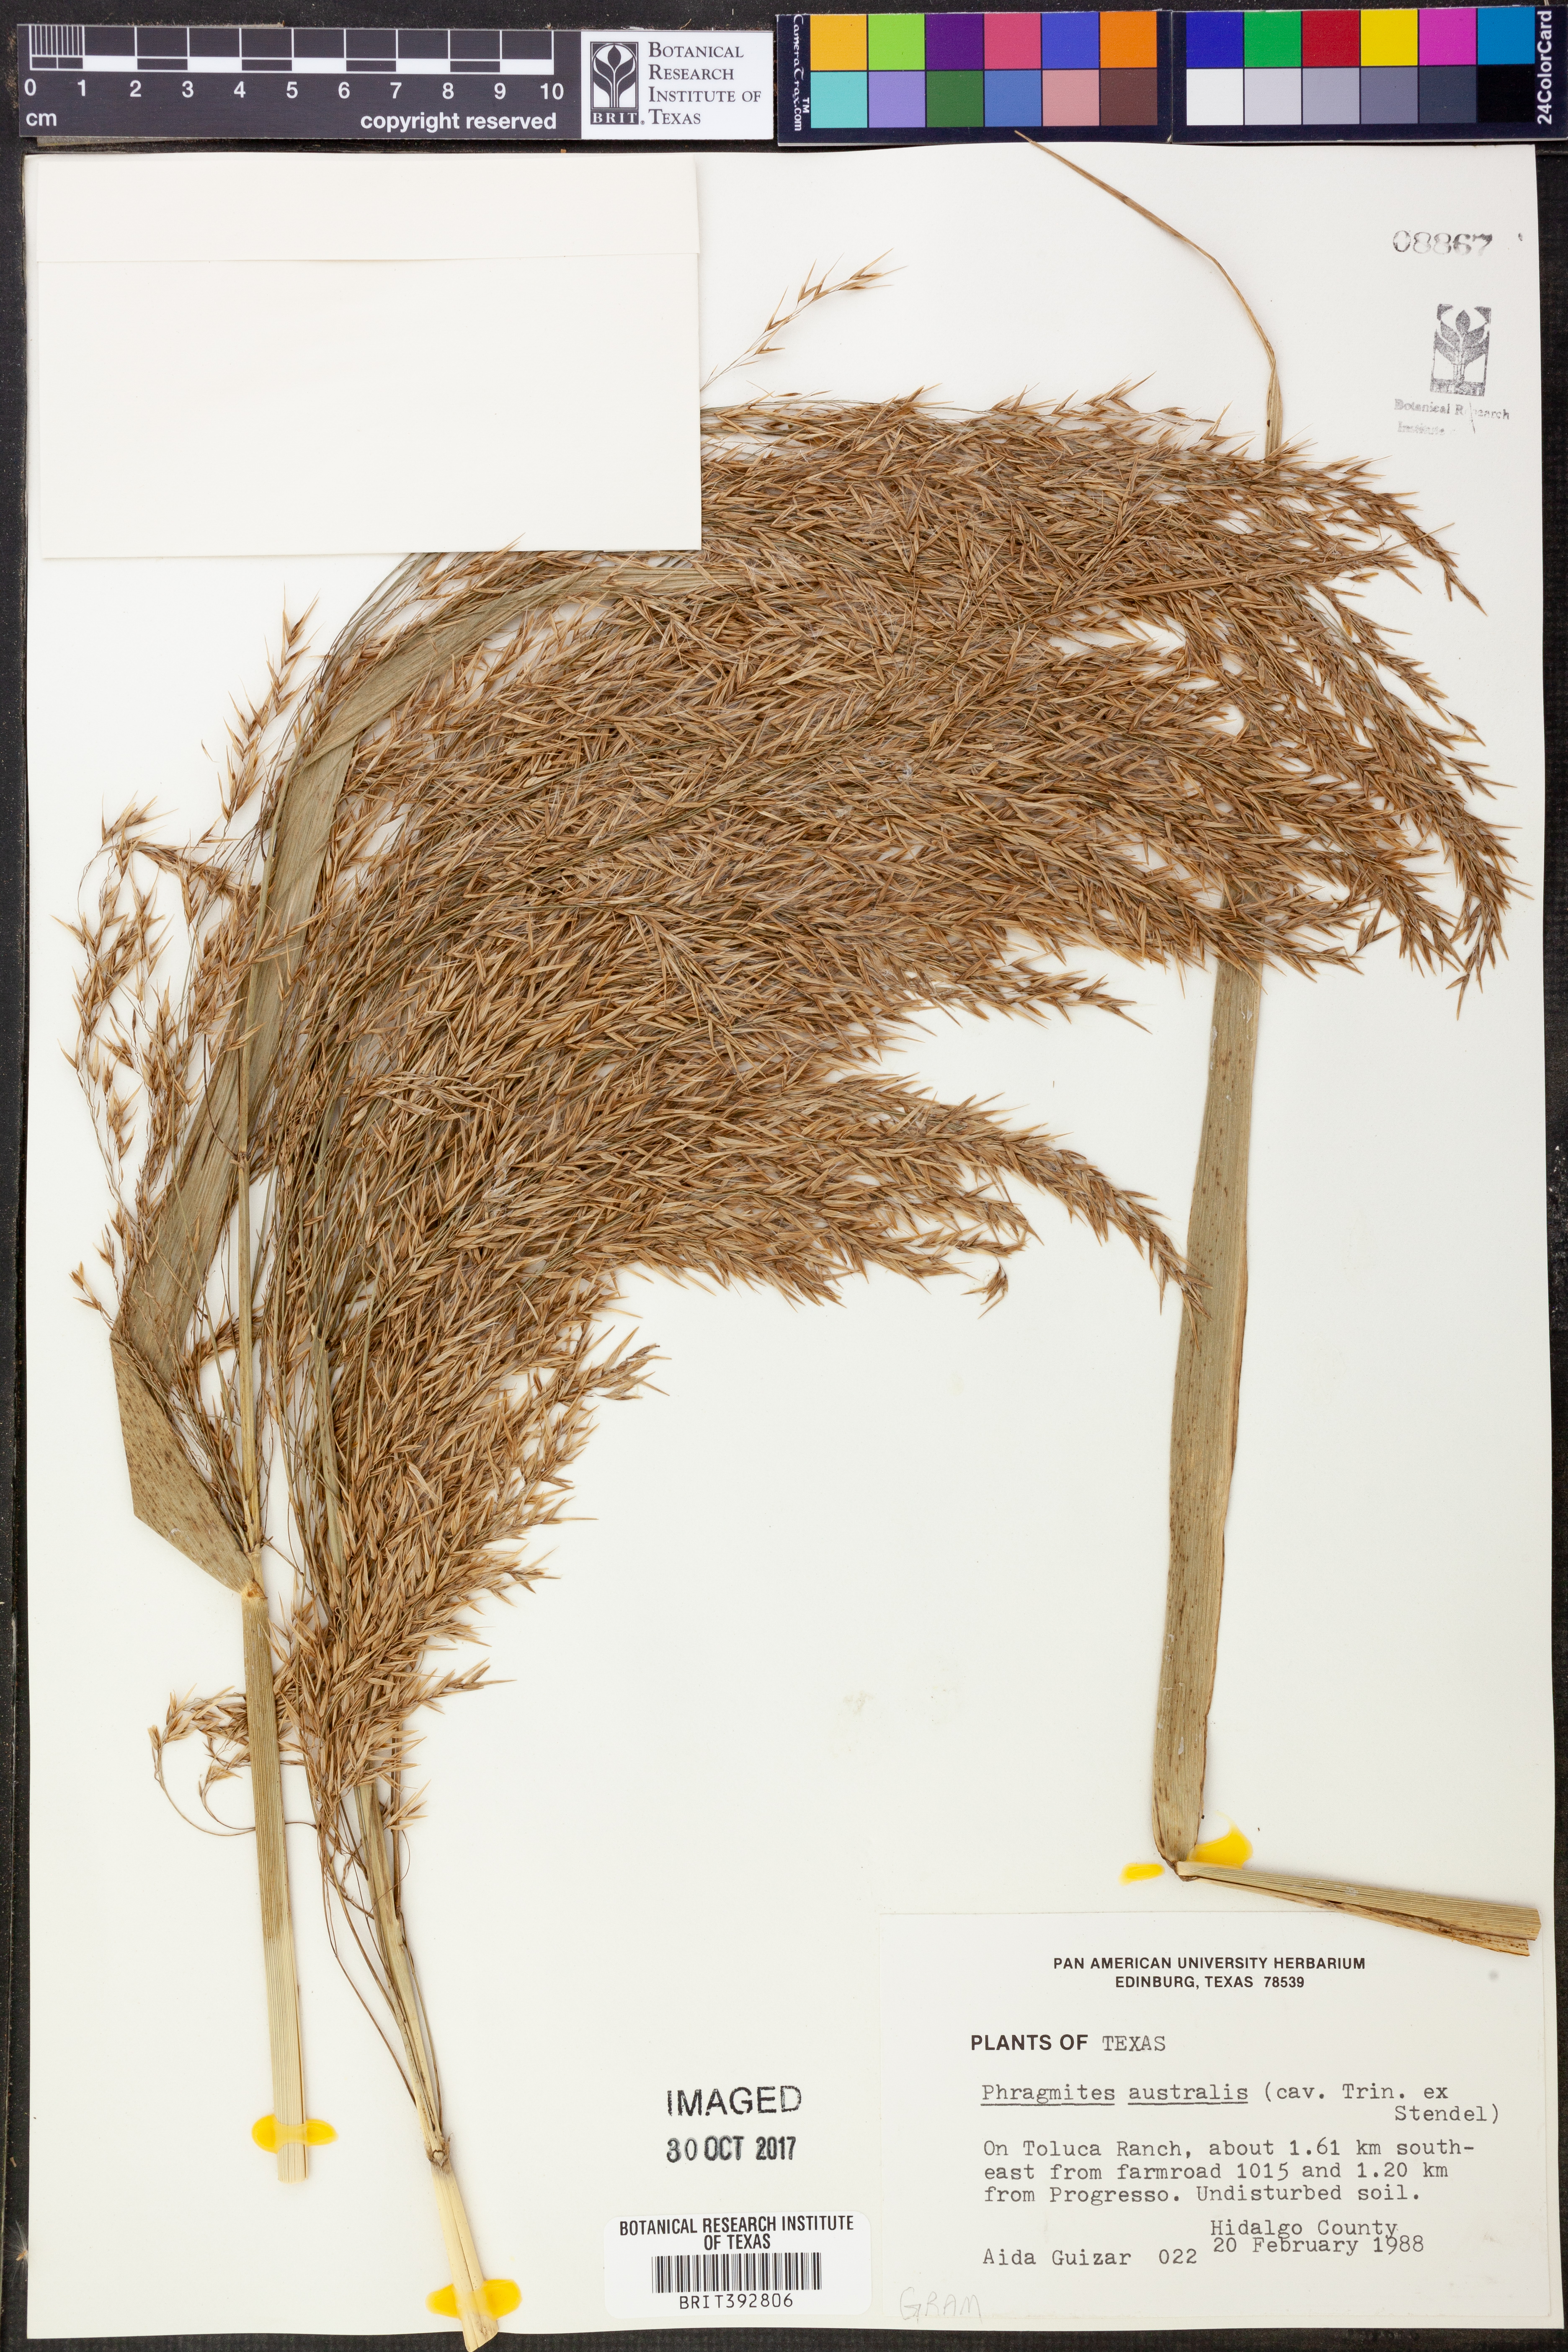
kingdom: Plantae
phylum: Tracheophyta
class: Liliopsida
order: Poales
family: Poaceae
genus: Phragmites
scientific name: Phragmites australis
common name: Common reed
